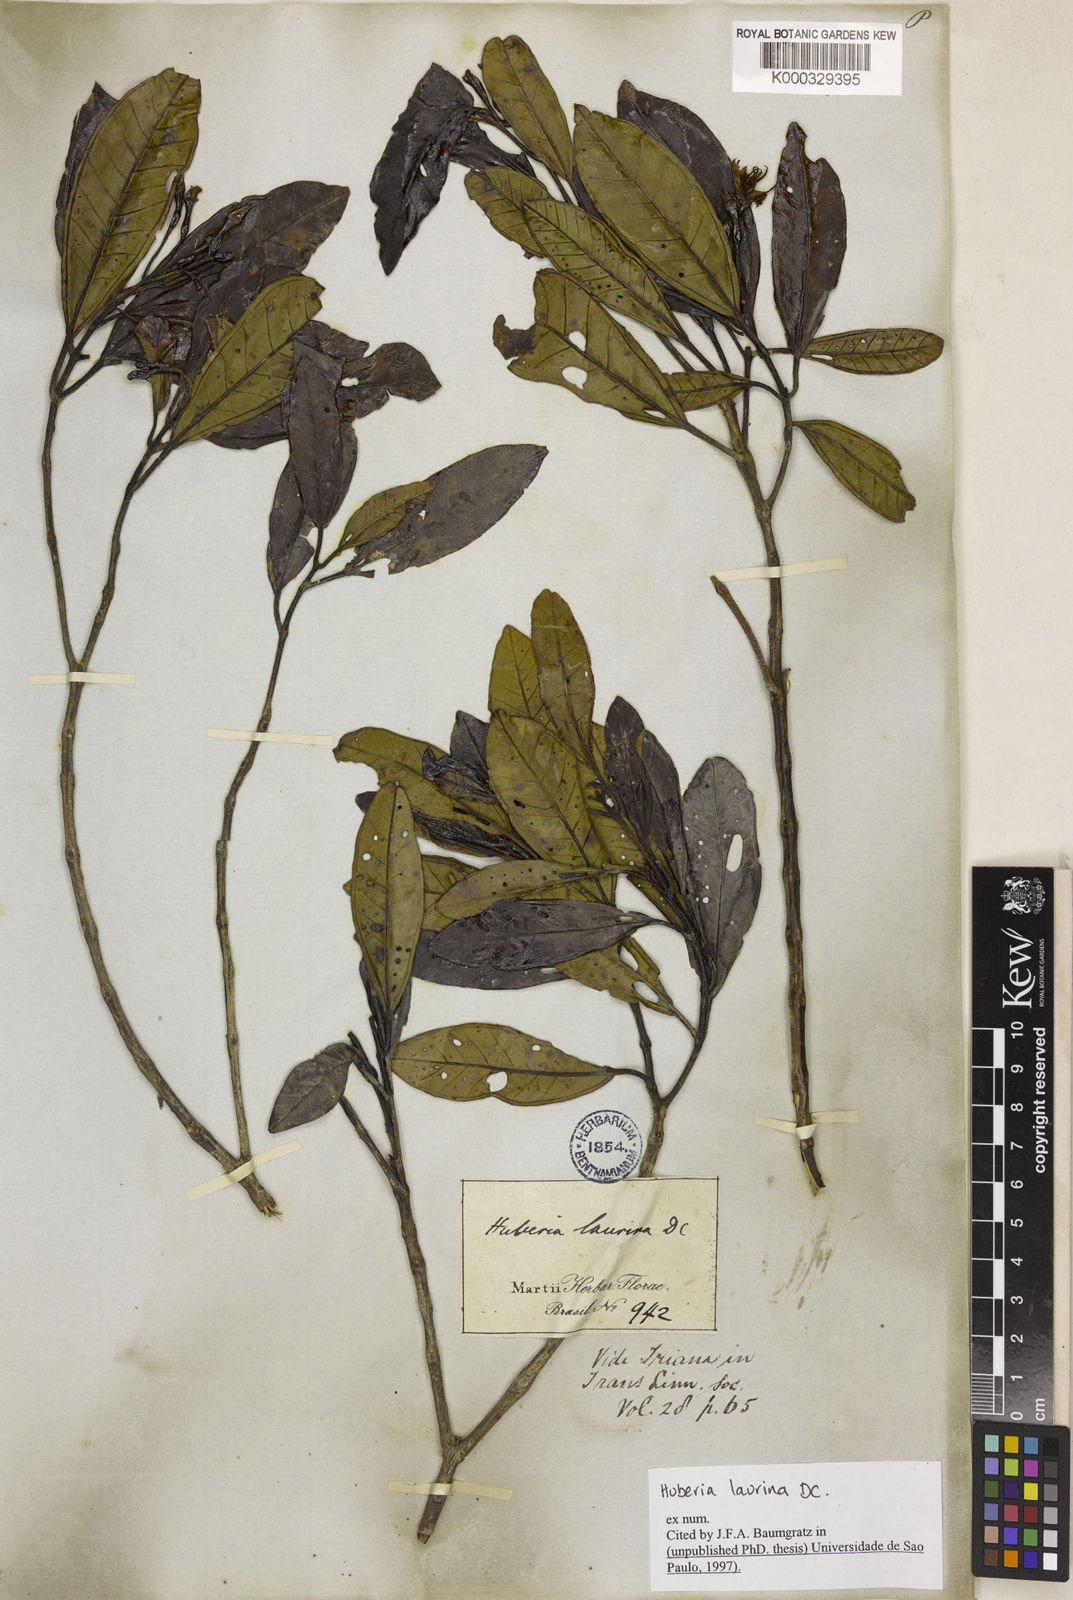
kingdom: Plantae
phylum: Tracheophyta
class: Magnoliopsida
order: Myrtales
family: Melastomataceae
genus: Huberia
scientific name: Huberia laurina
